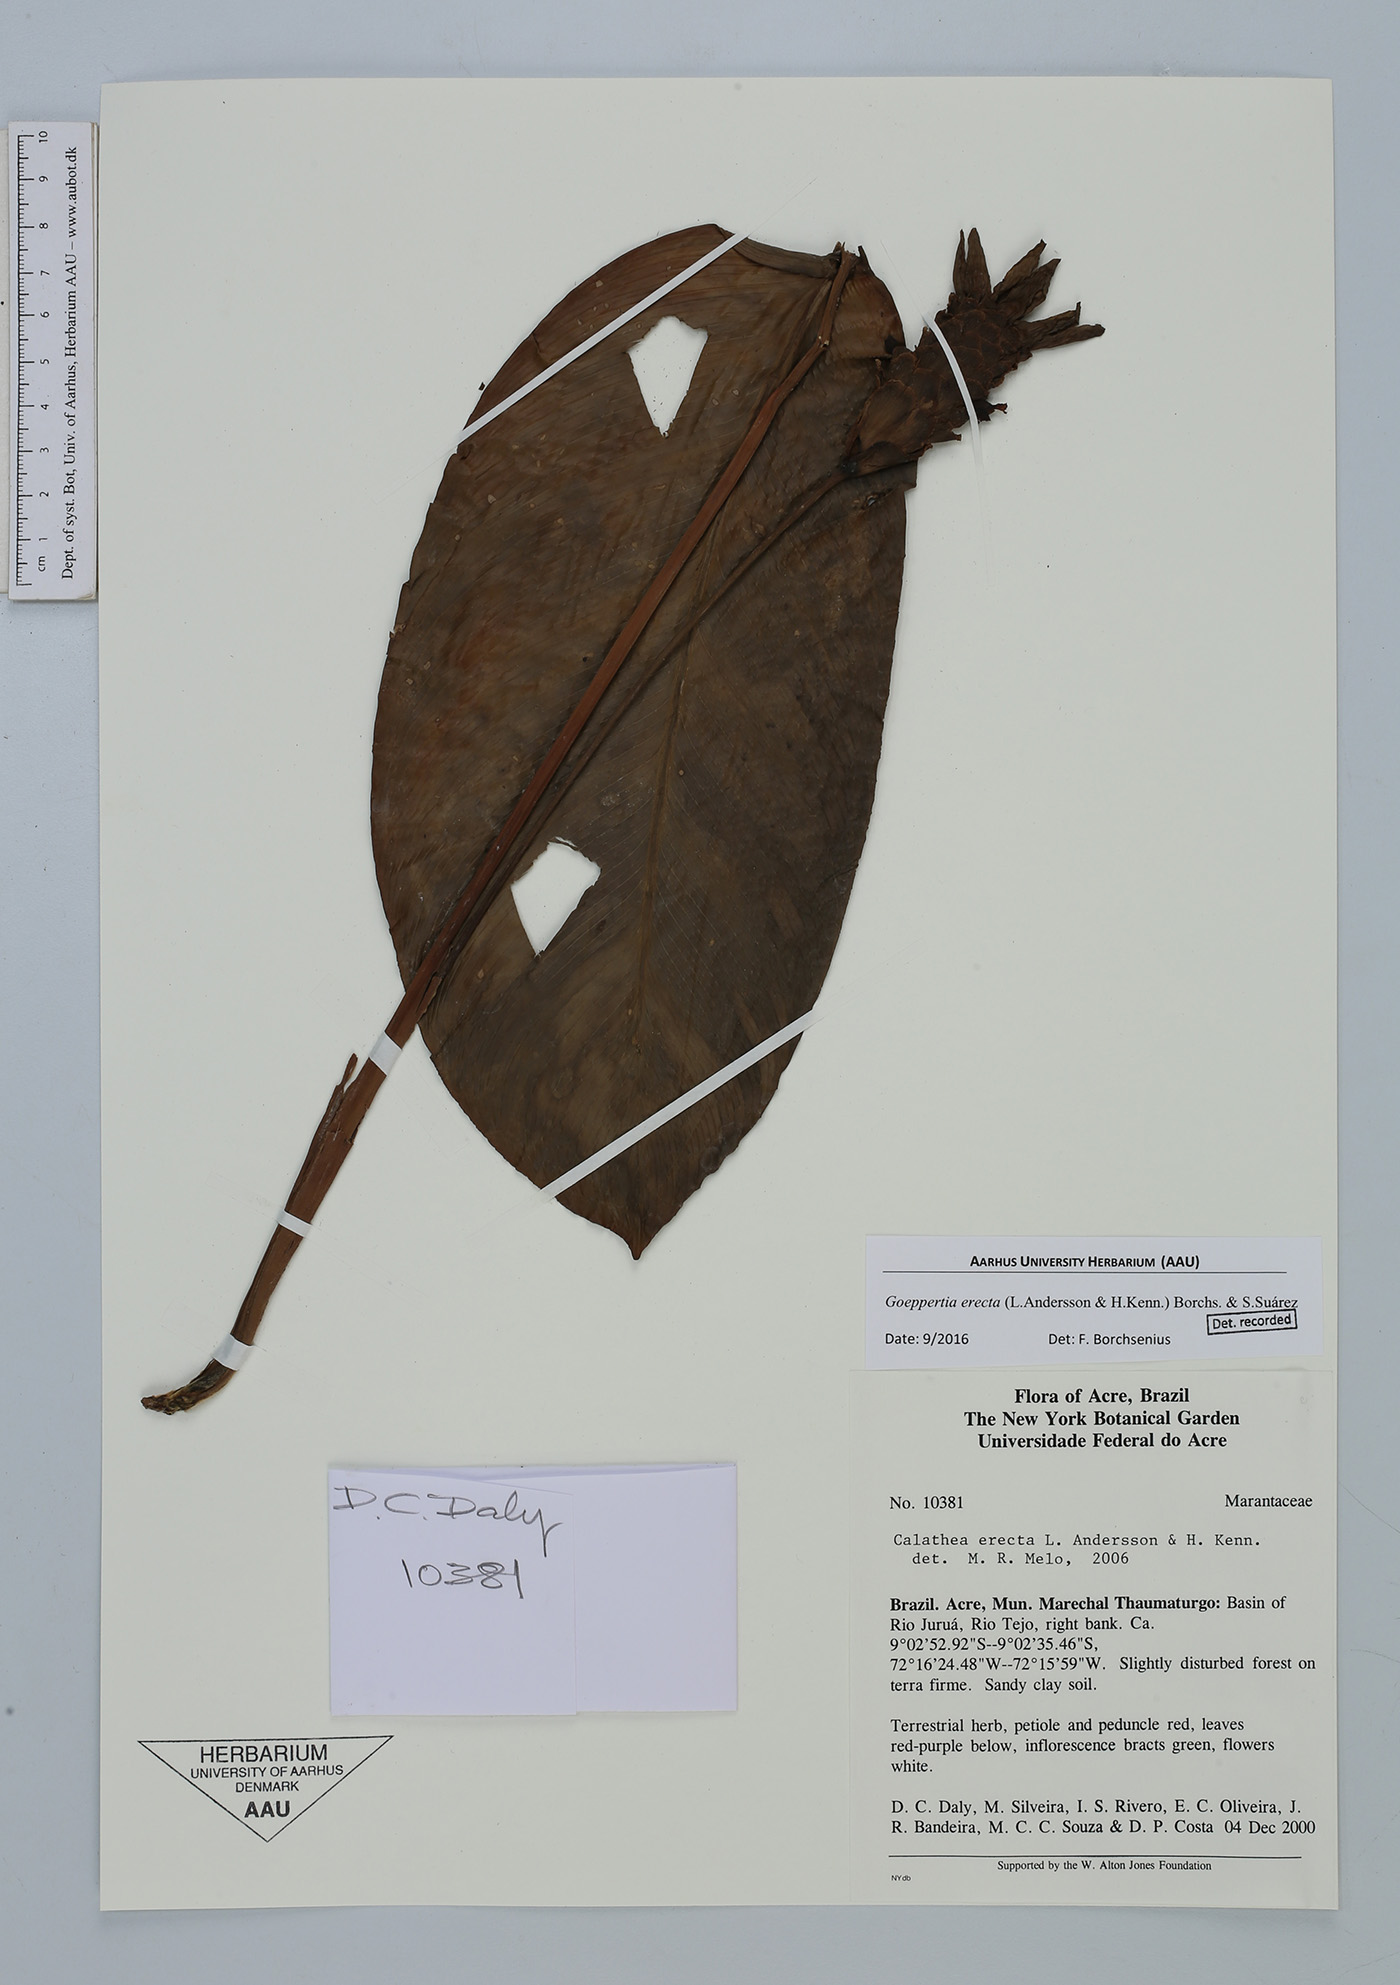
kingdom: Plantae
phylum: Tracheophyta
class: Liliopsida
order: Zingiberales
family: Marantaceae
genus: Goeppertia
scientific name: Goeppertia erecta
